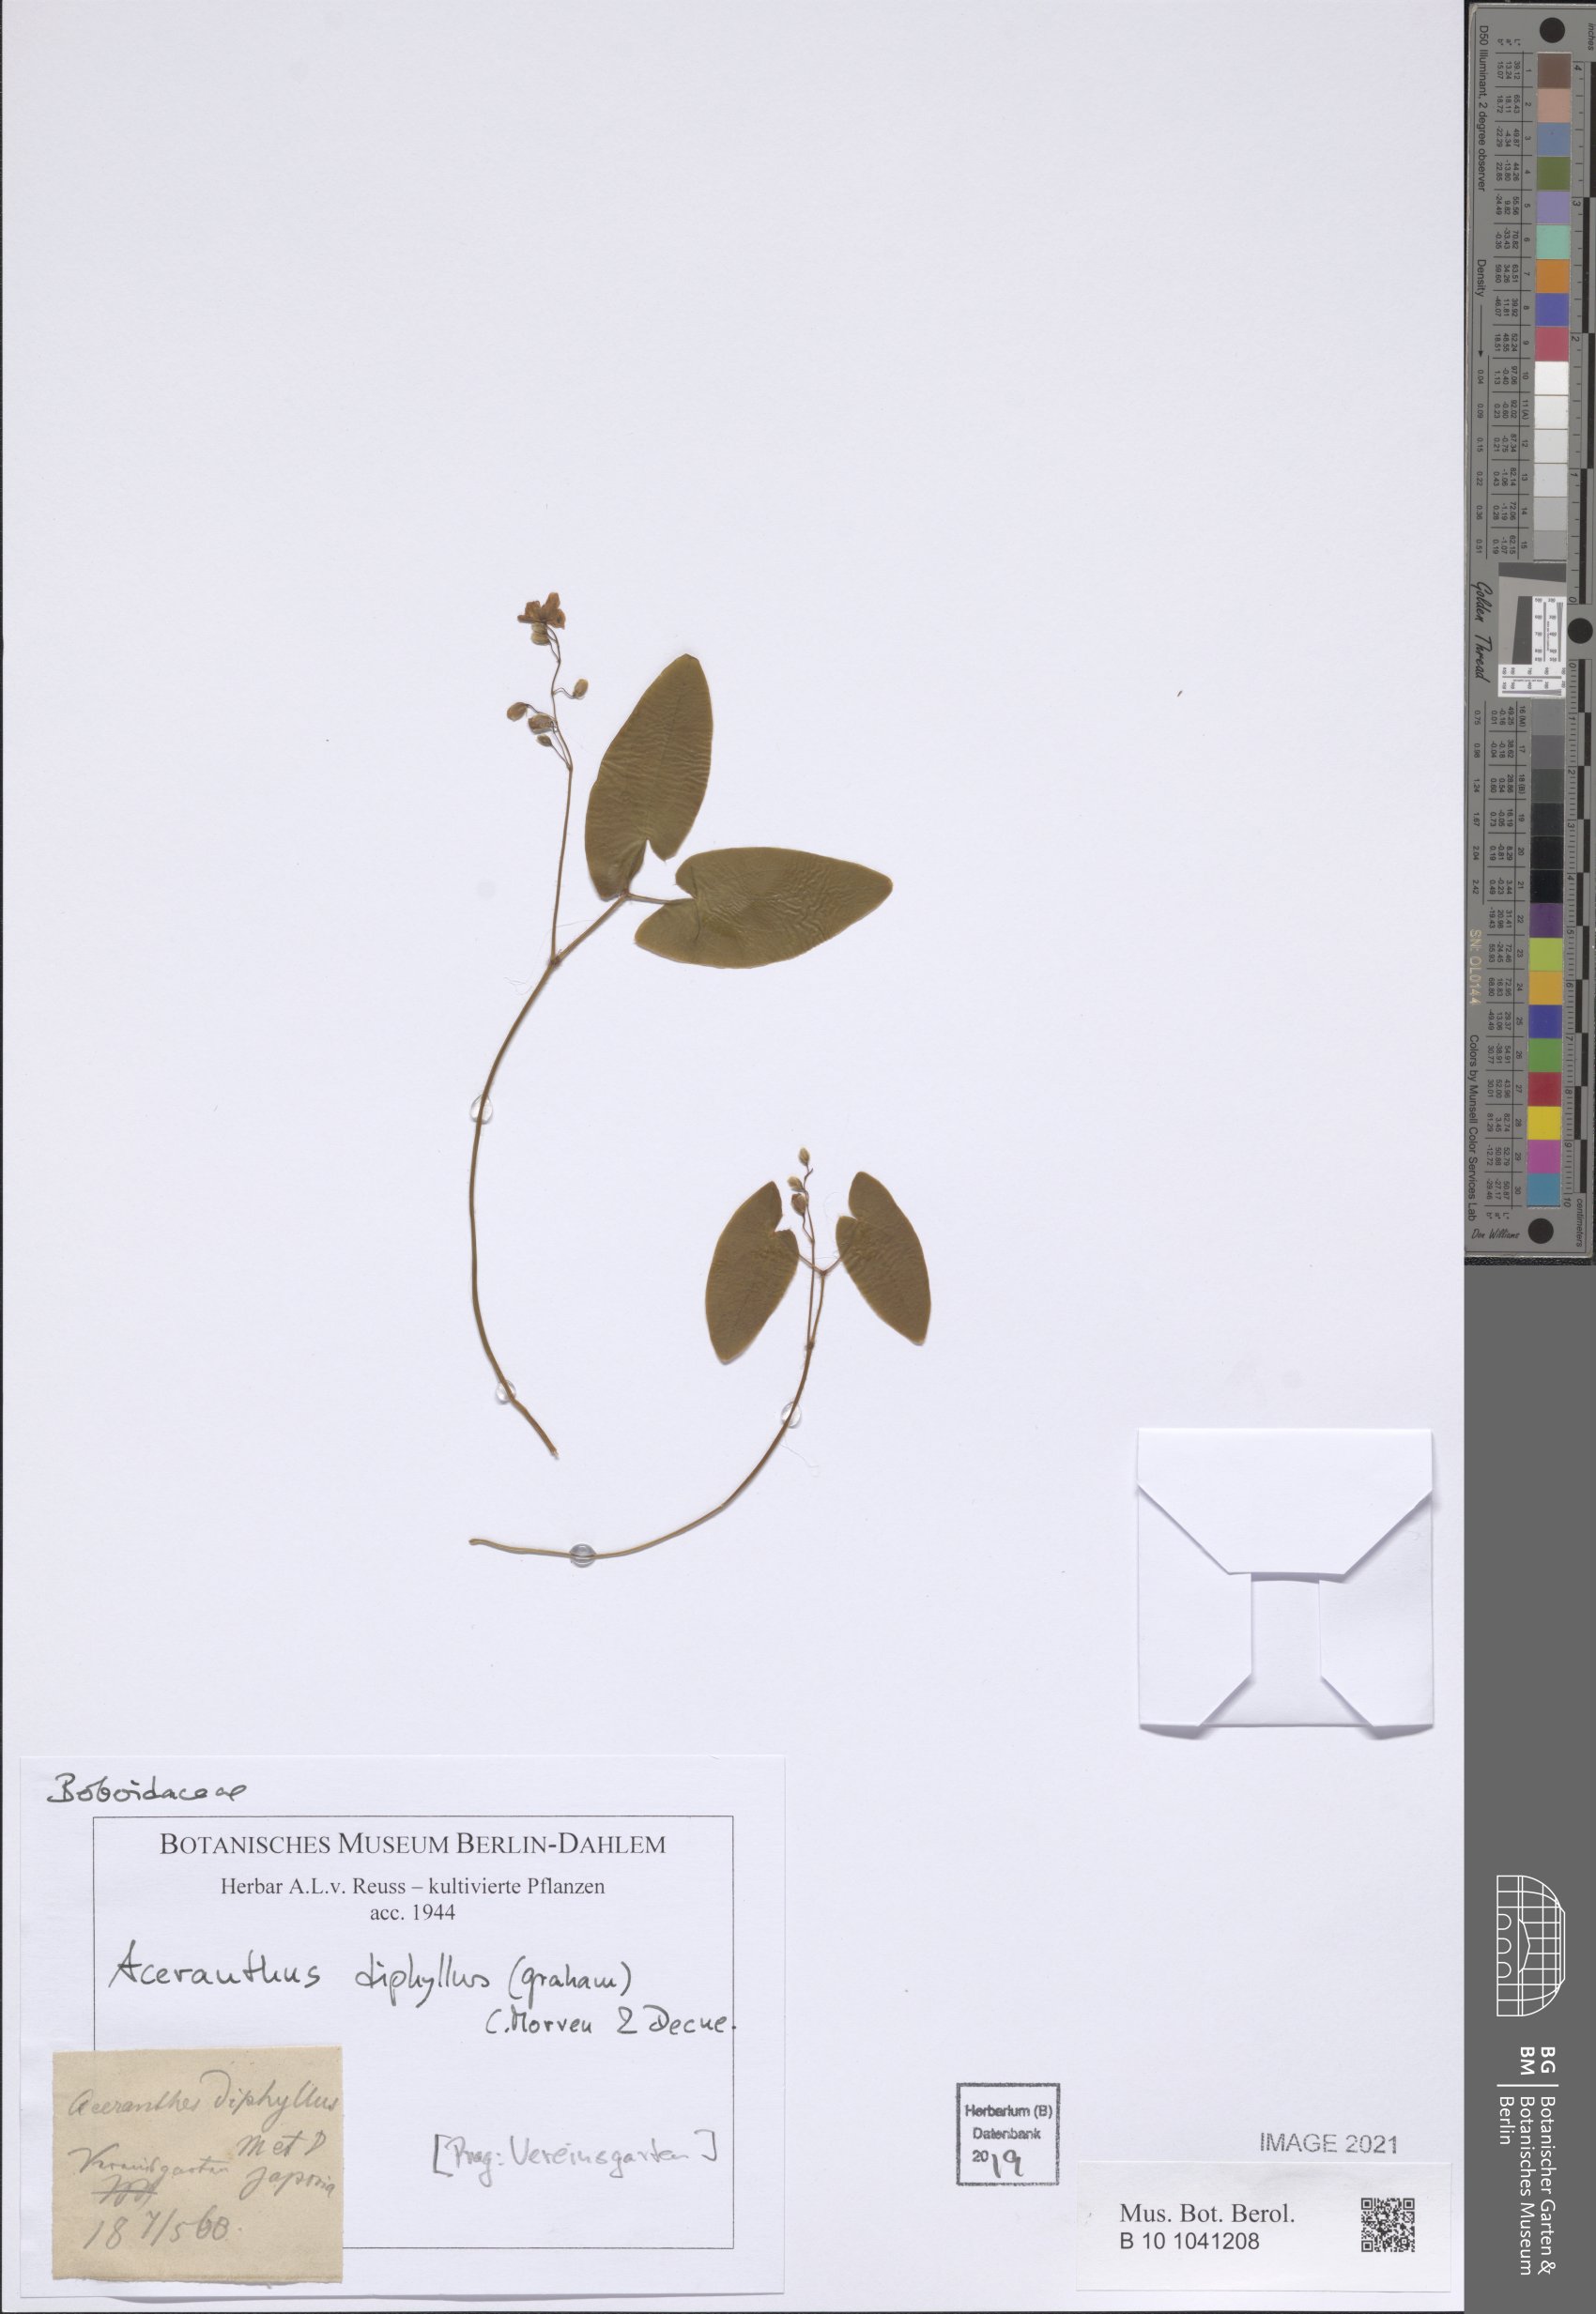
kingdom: Plantae
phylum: Tracheophyta
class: Magnoliopsida
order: Ranunculales
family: Berberidaceae
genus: Epimedium
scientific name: Epimedium diphyllum
